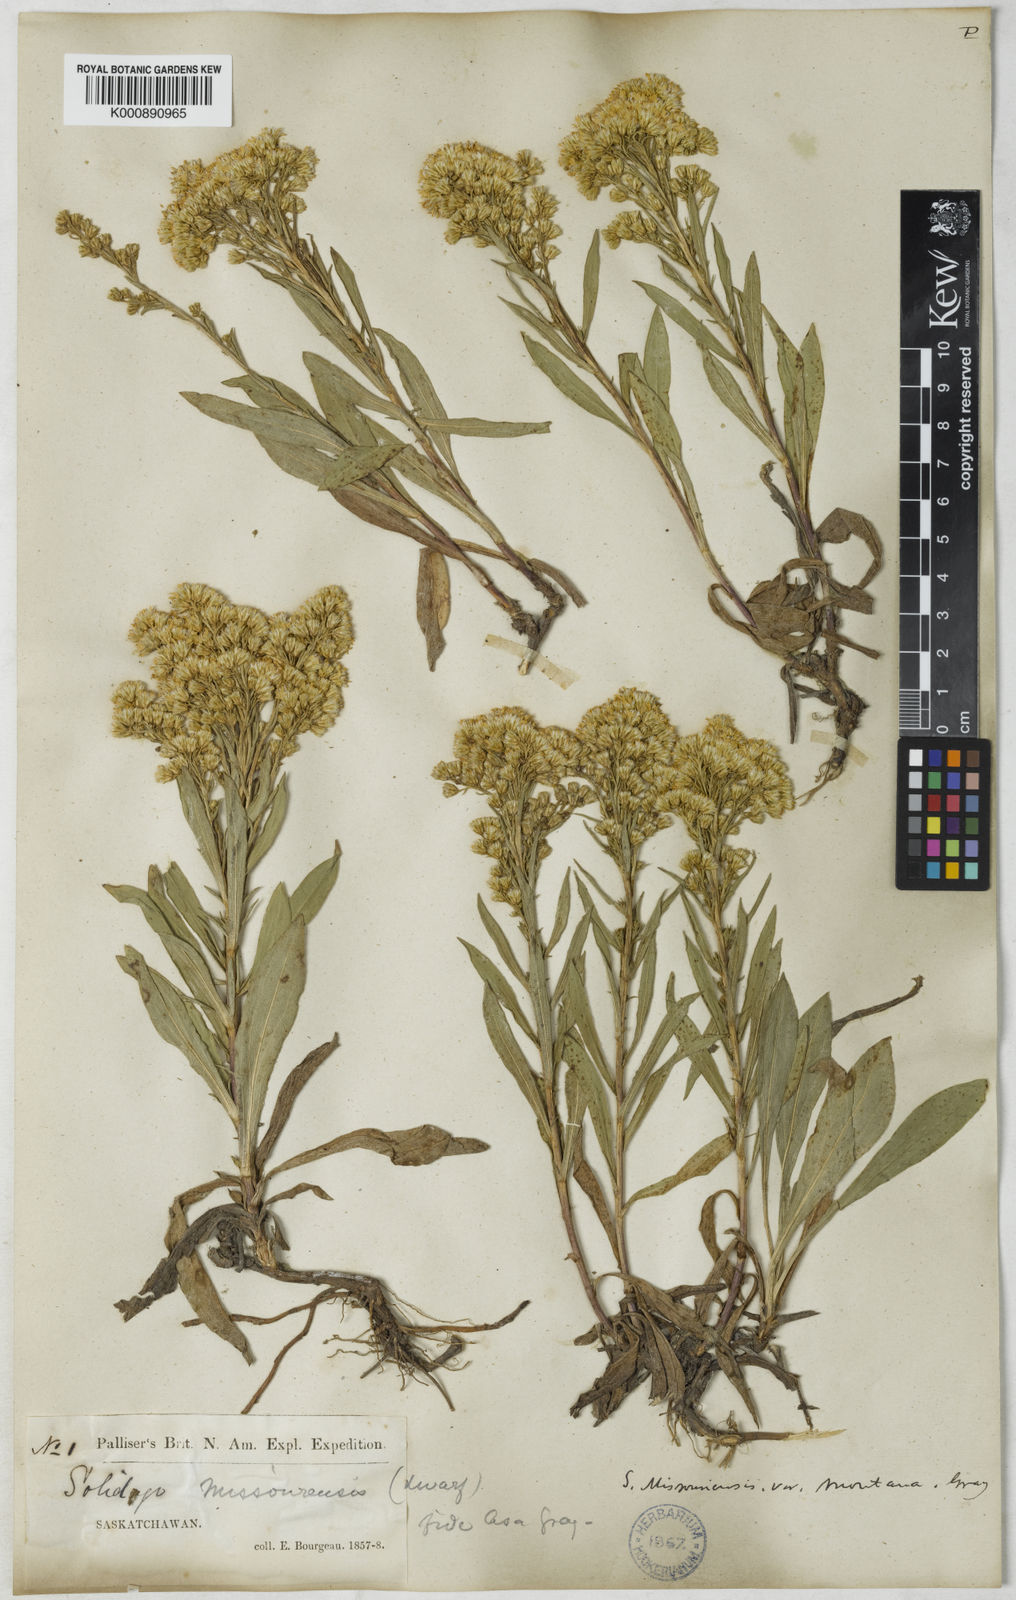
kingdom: Plantae
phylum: Tracheophyta
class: Magnoliopsida
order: Asterales
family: Asteraceae
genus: Solidago
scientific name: Solidago missouriensis
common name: Prairie goldenrod
